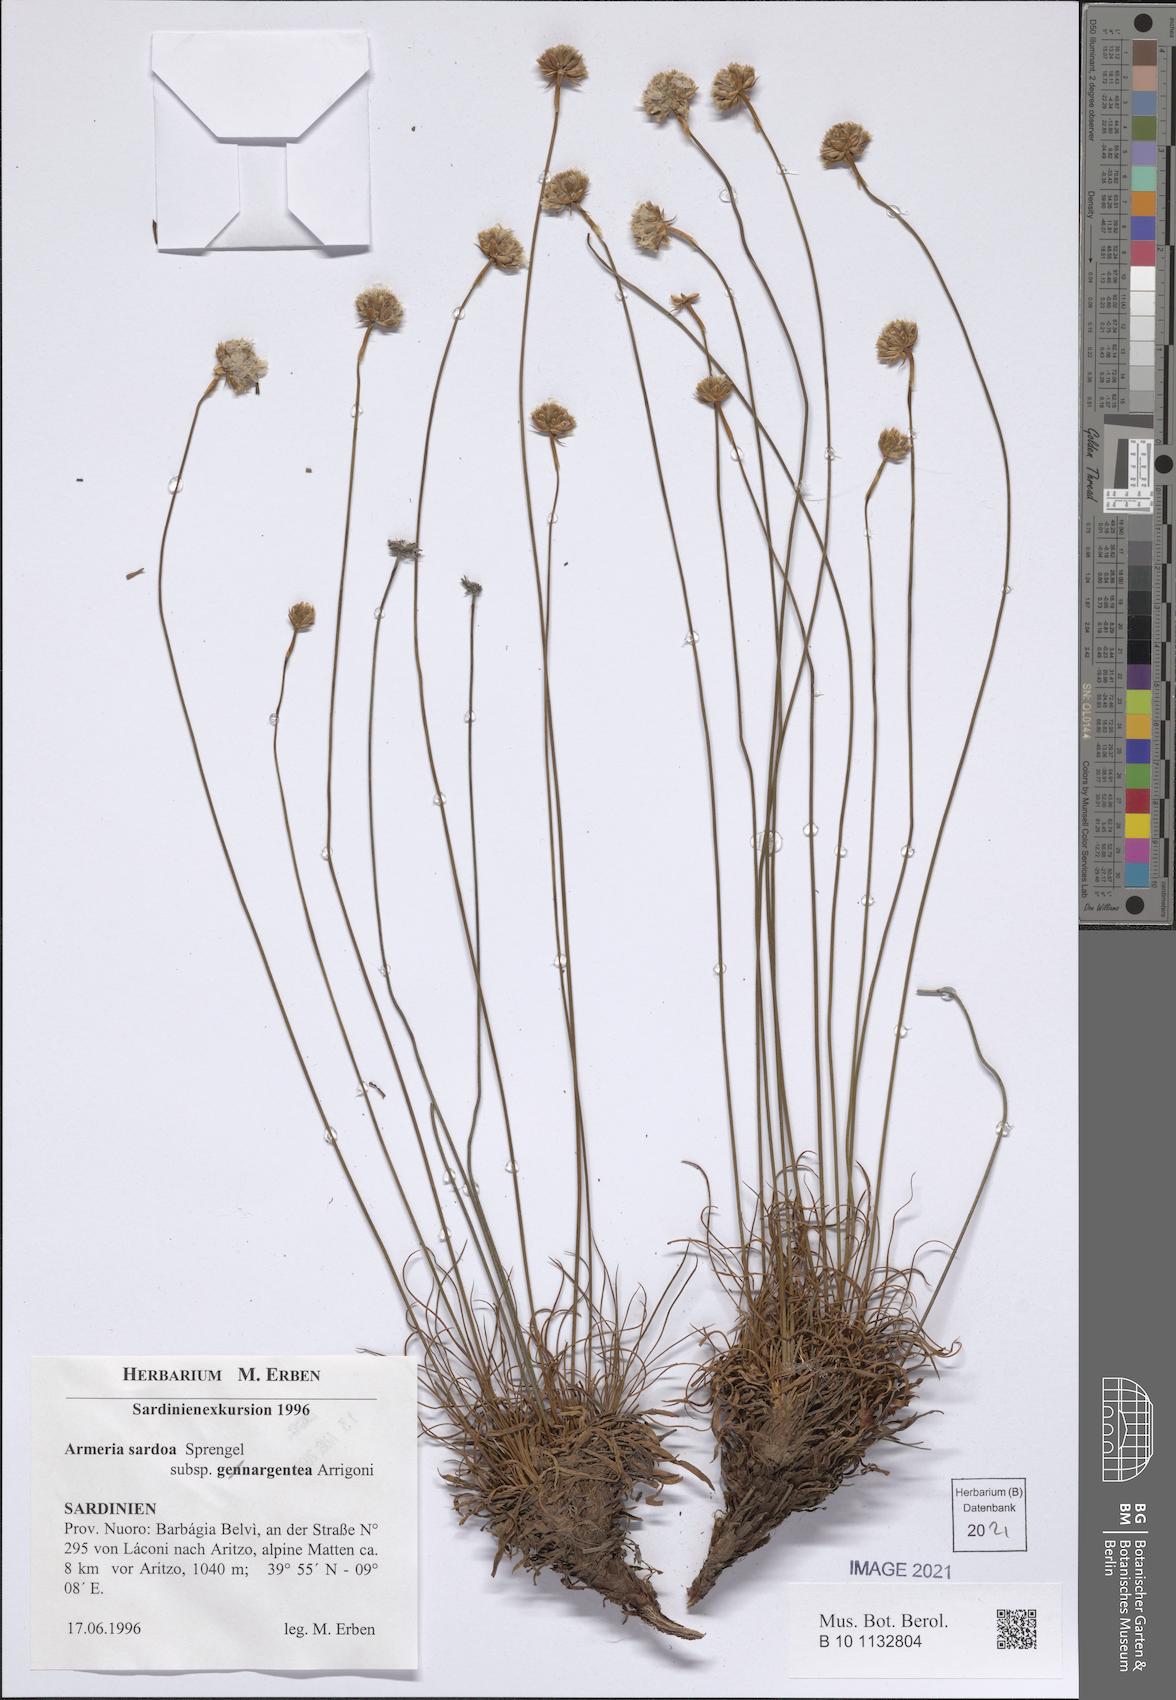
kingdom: Plantae
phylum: Tracheophyta
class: Magnoliopsida
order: Caryophyllales
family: Plumbaginaceae
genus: Armeria
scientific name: Armeria sardoa
